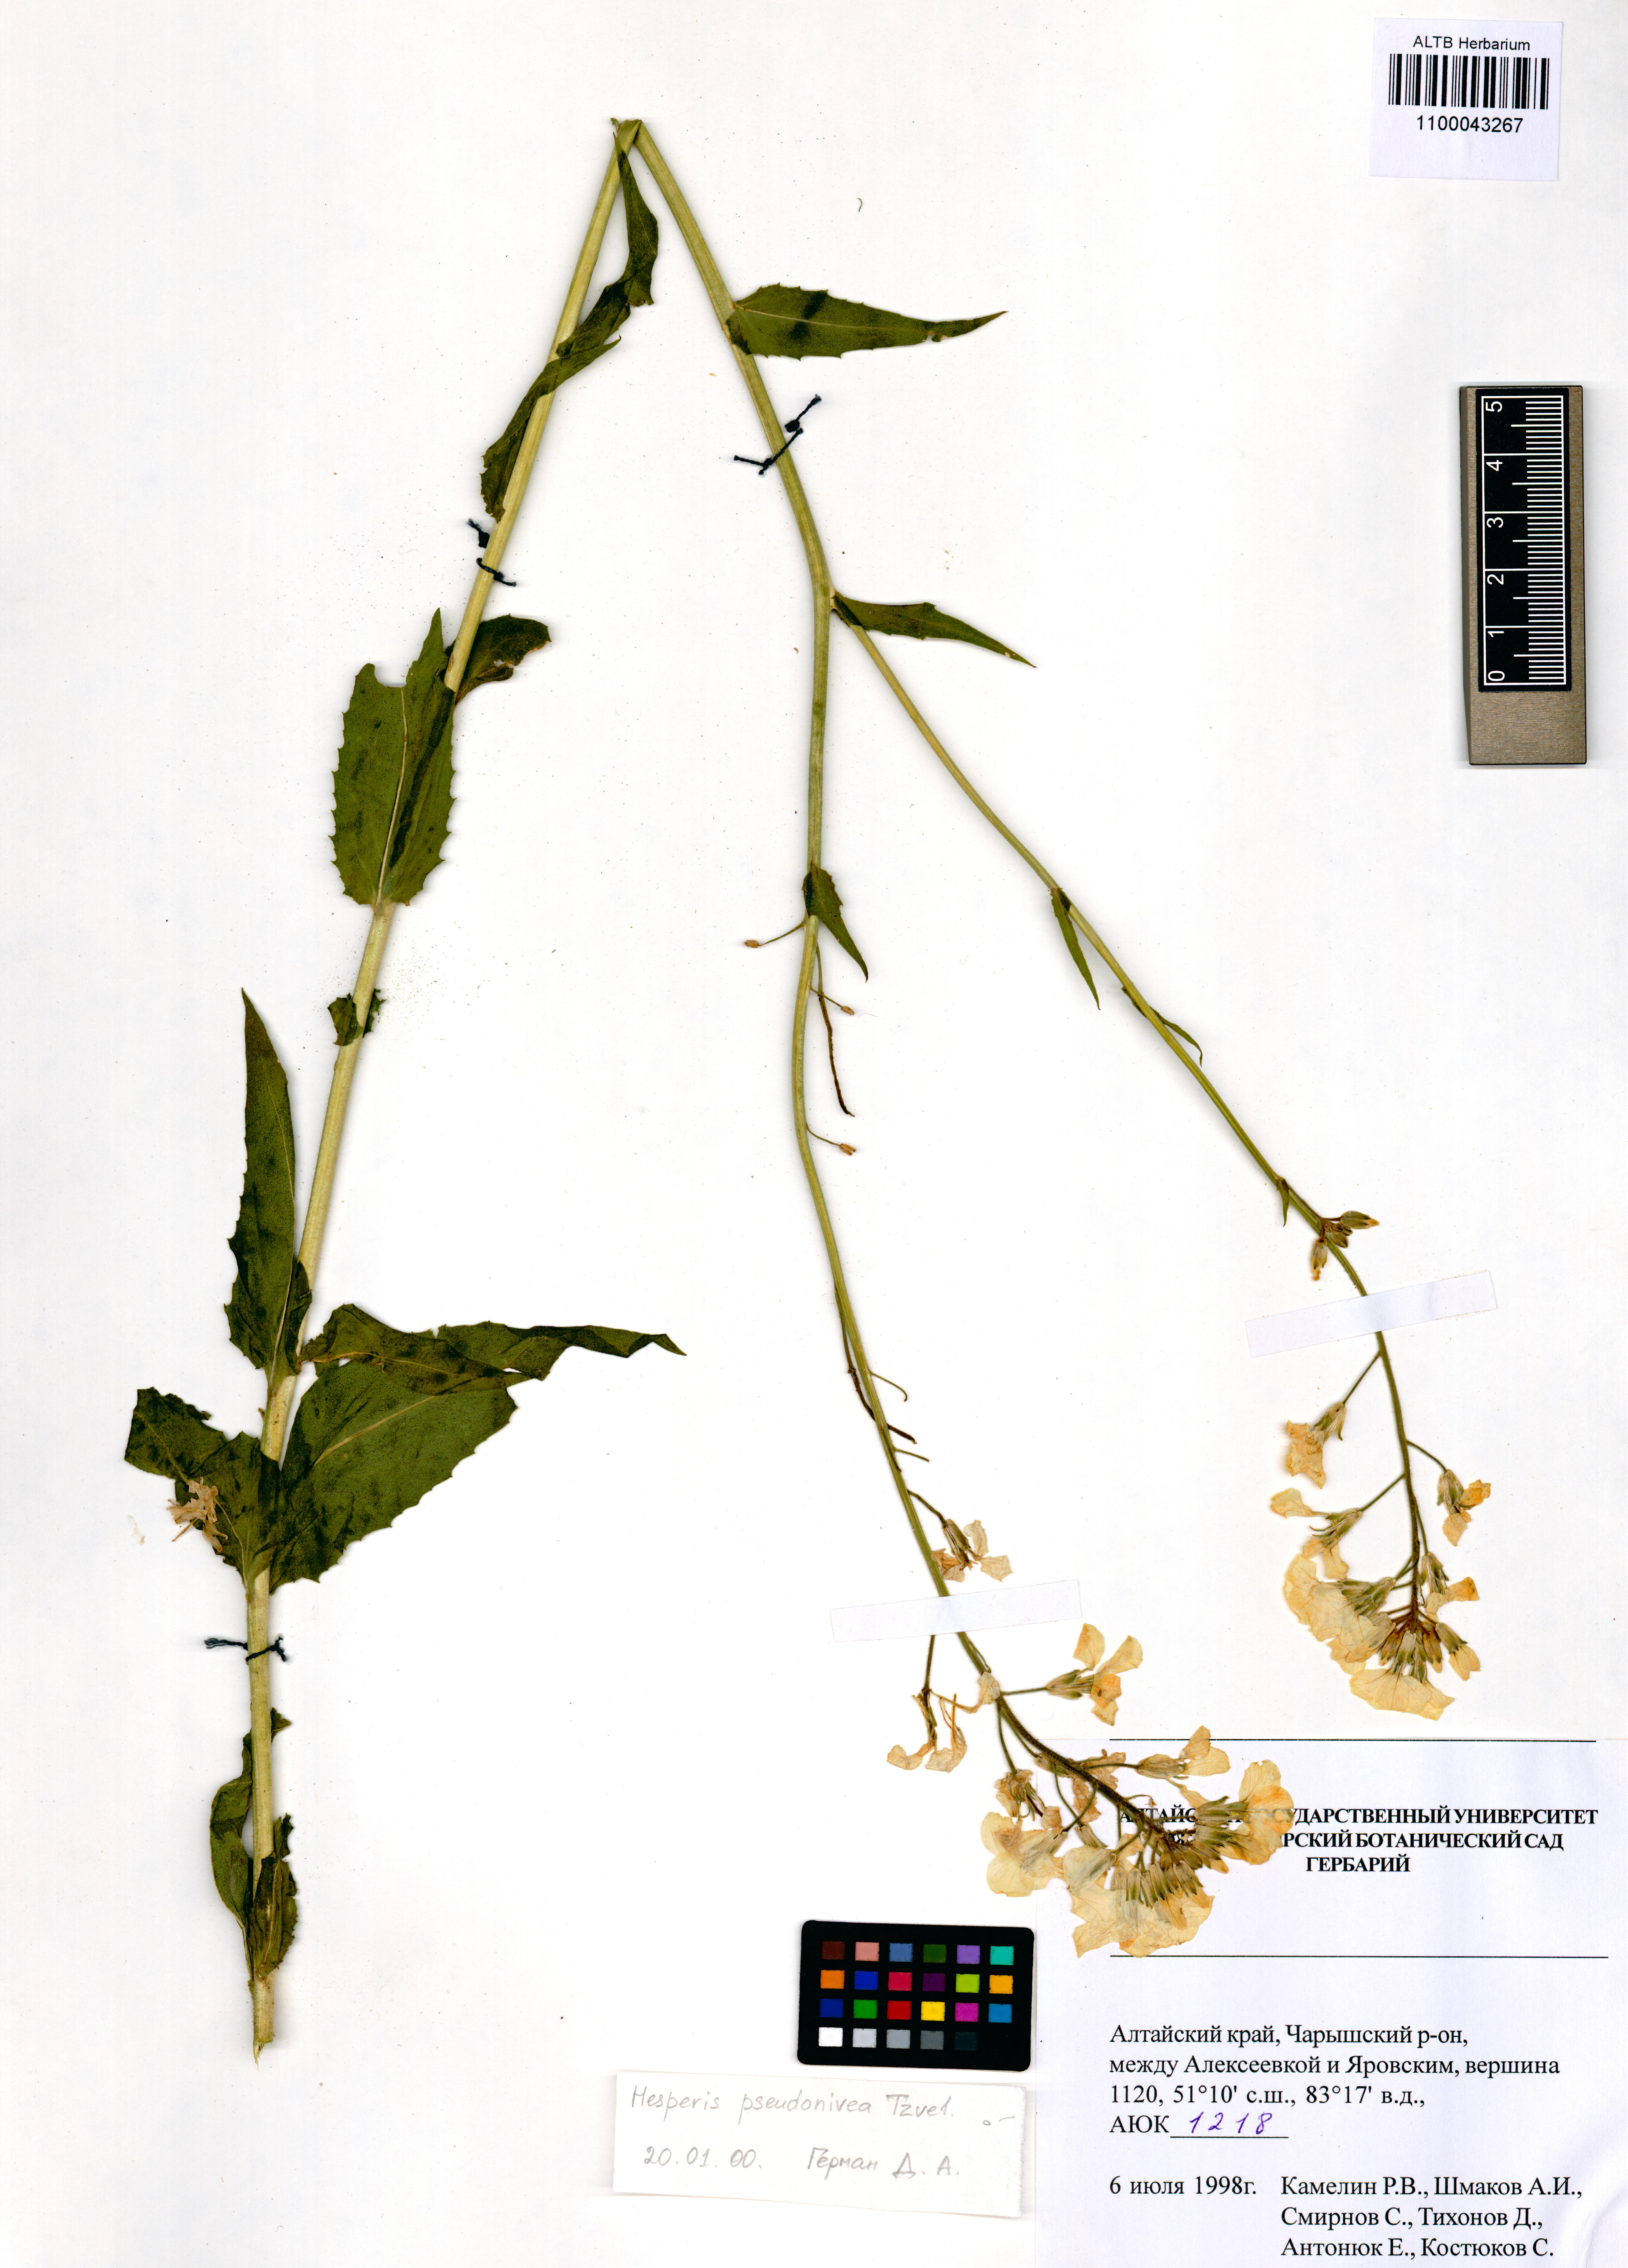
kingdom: Plantae
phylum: Tracheophyta
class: Magnoliopsida
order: Brassicales
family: Brassicaceae
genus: Hesperis
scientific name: Hesperis sibirica
